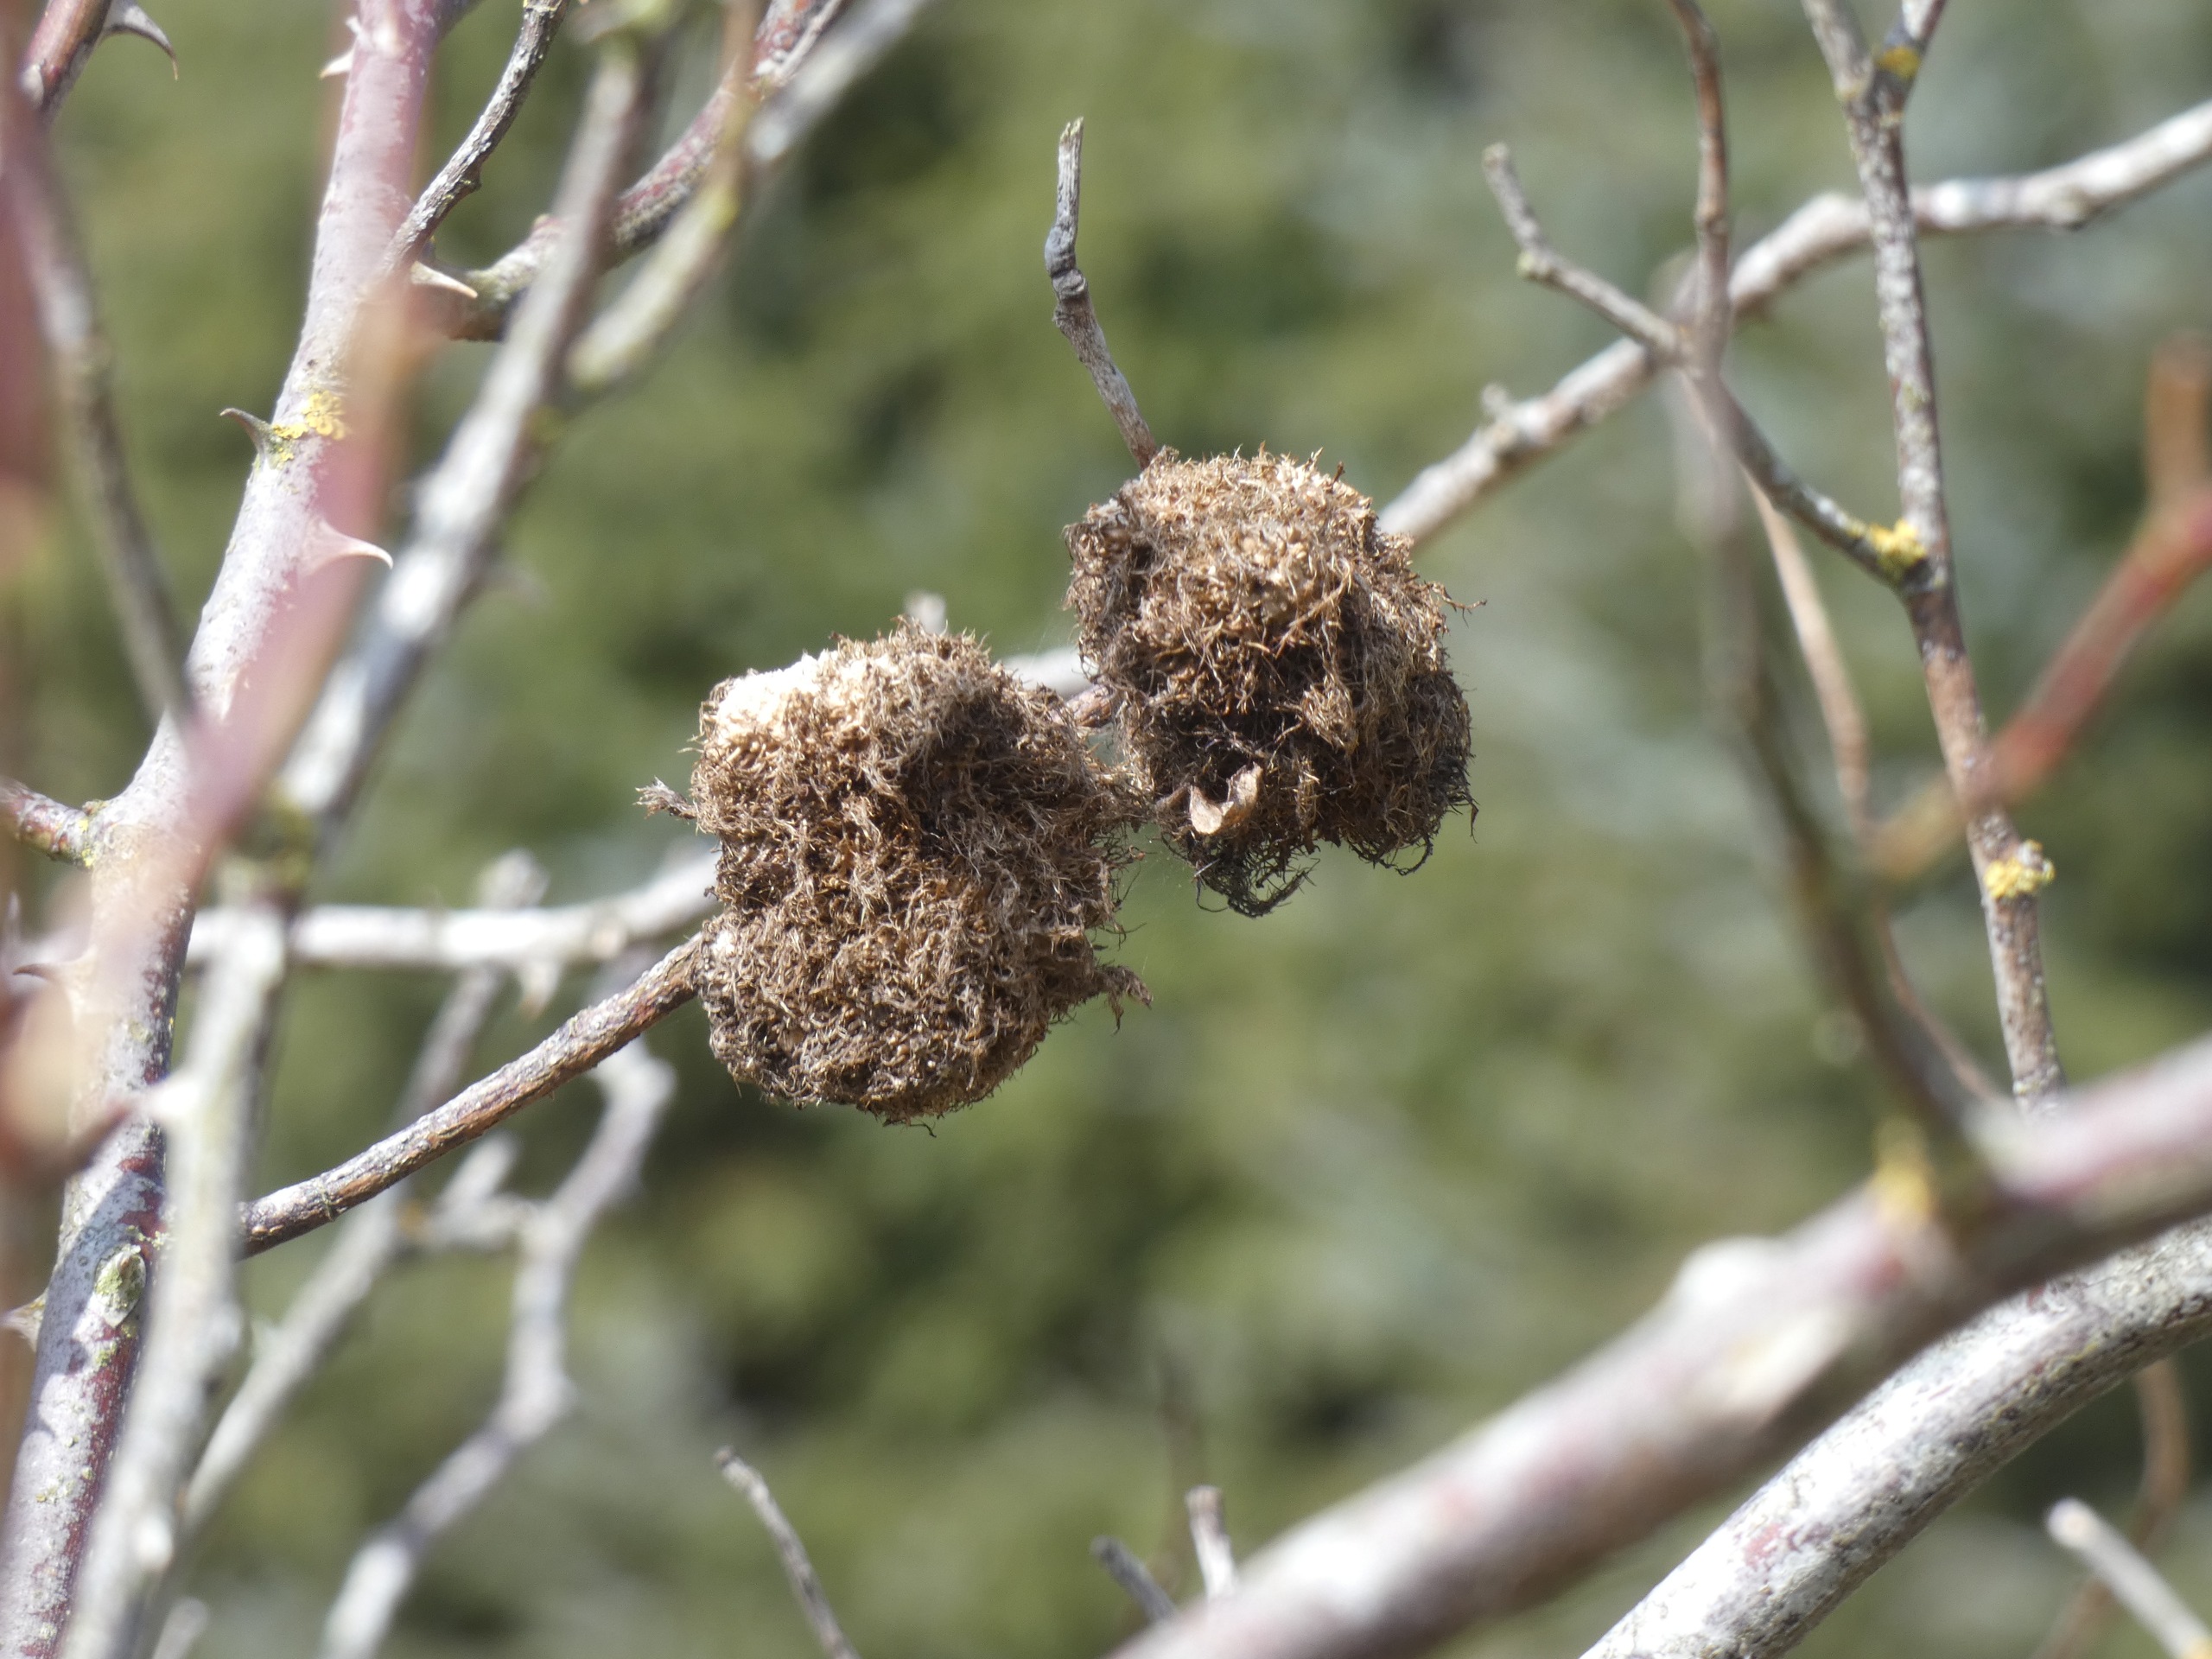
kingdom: Animalia
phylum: Arthropoda
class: Insecta
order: Hymenoptera
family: Cynipidae
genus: Diplolepis
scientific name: Diplolepis rosae
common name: Bedeguargalhveps
